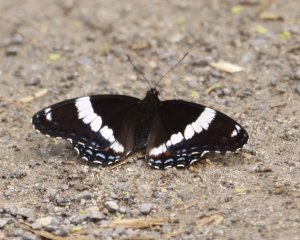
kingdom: Animalia
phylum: Arthropoda
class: Insecta
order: Lepidoptera
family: Nymphalidae
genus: Limenitis
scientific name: Limenitis arthemis
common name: Red-spotted Admiral
